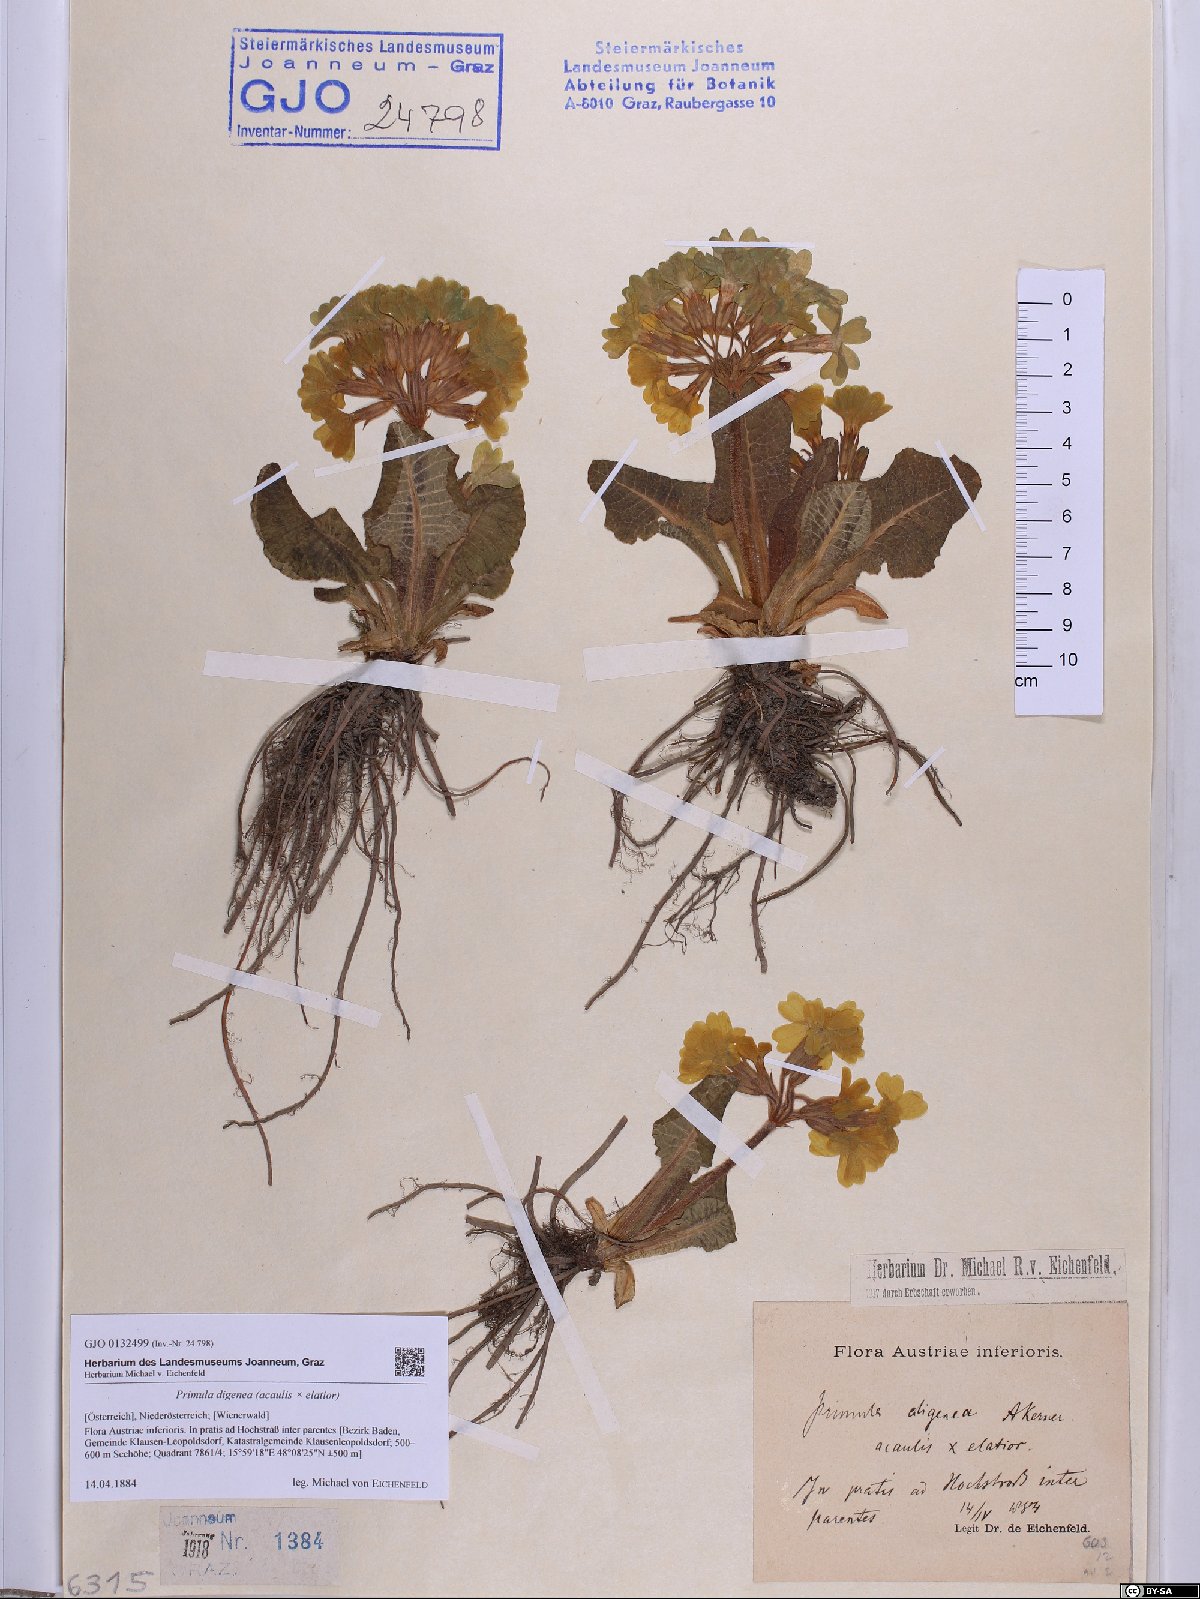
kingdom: Plantae
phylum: Tracheophyta
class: Magnoliopsida
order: Ericales
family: Primulaceae
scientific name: Primulaceae
